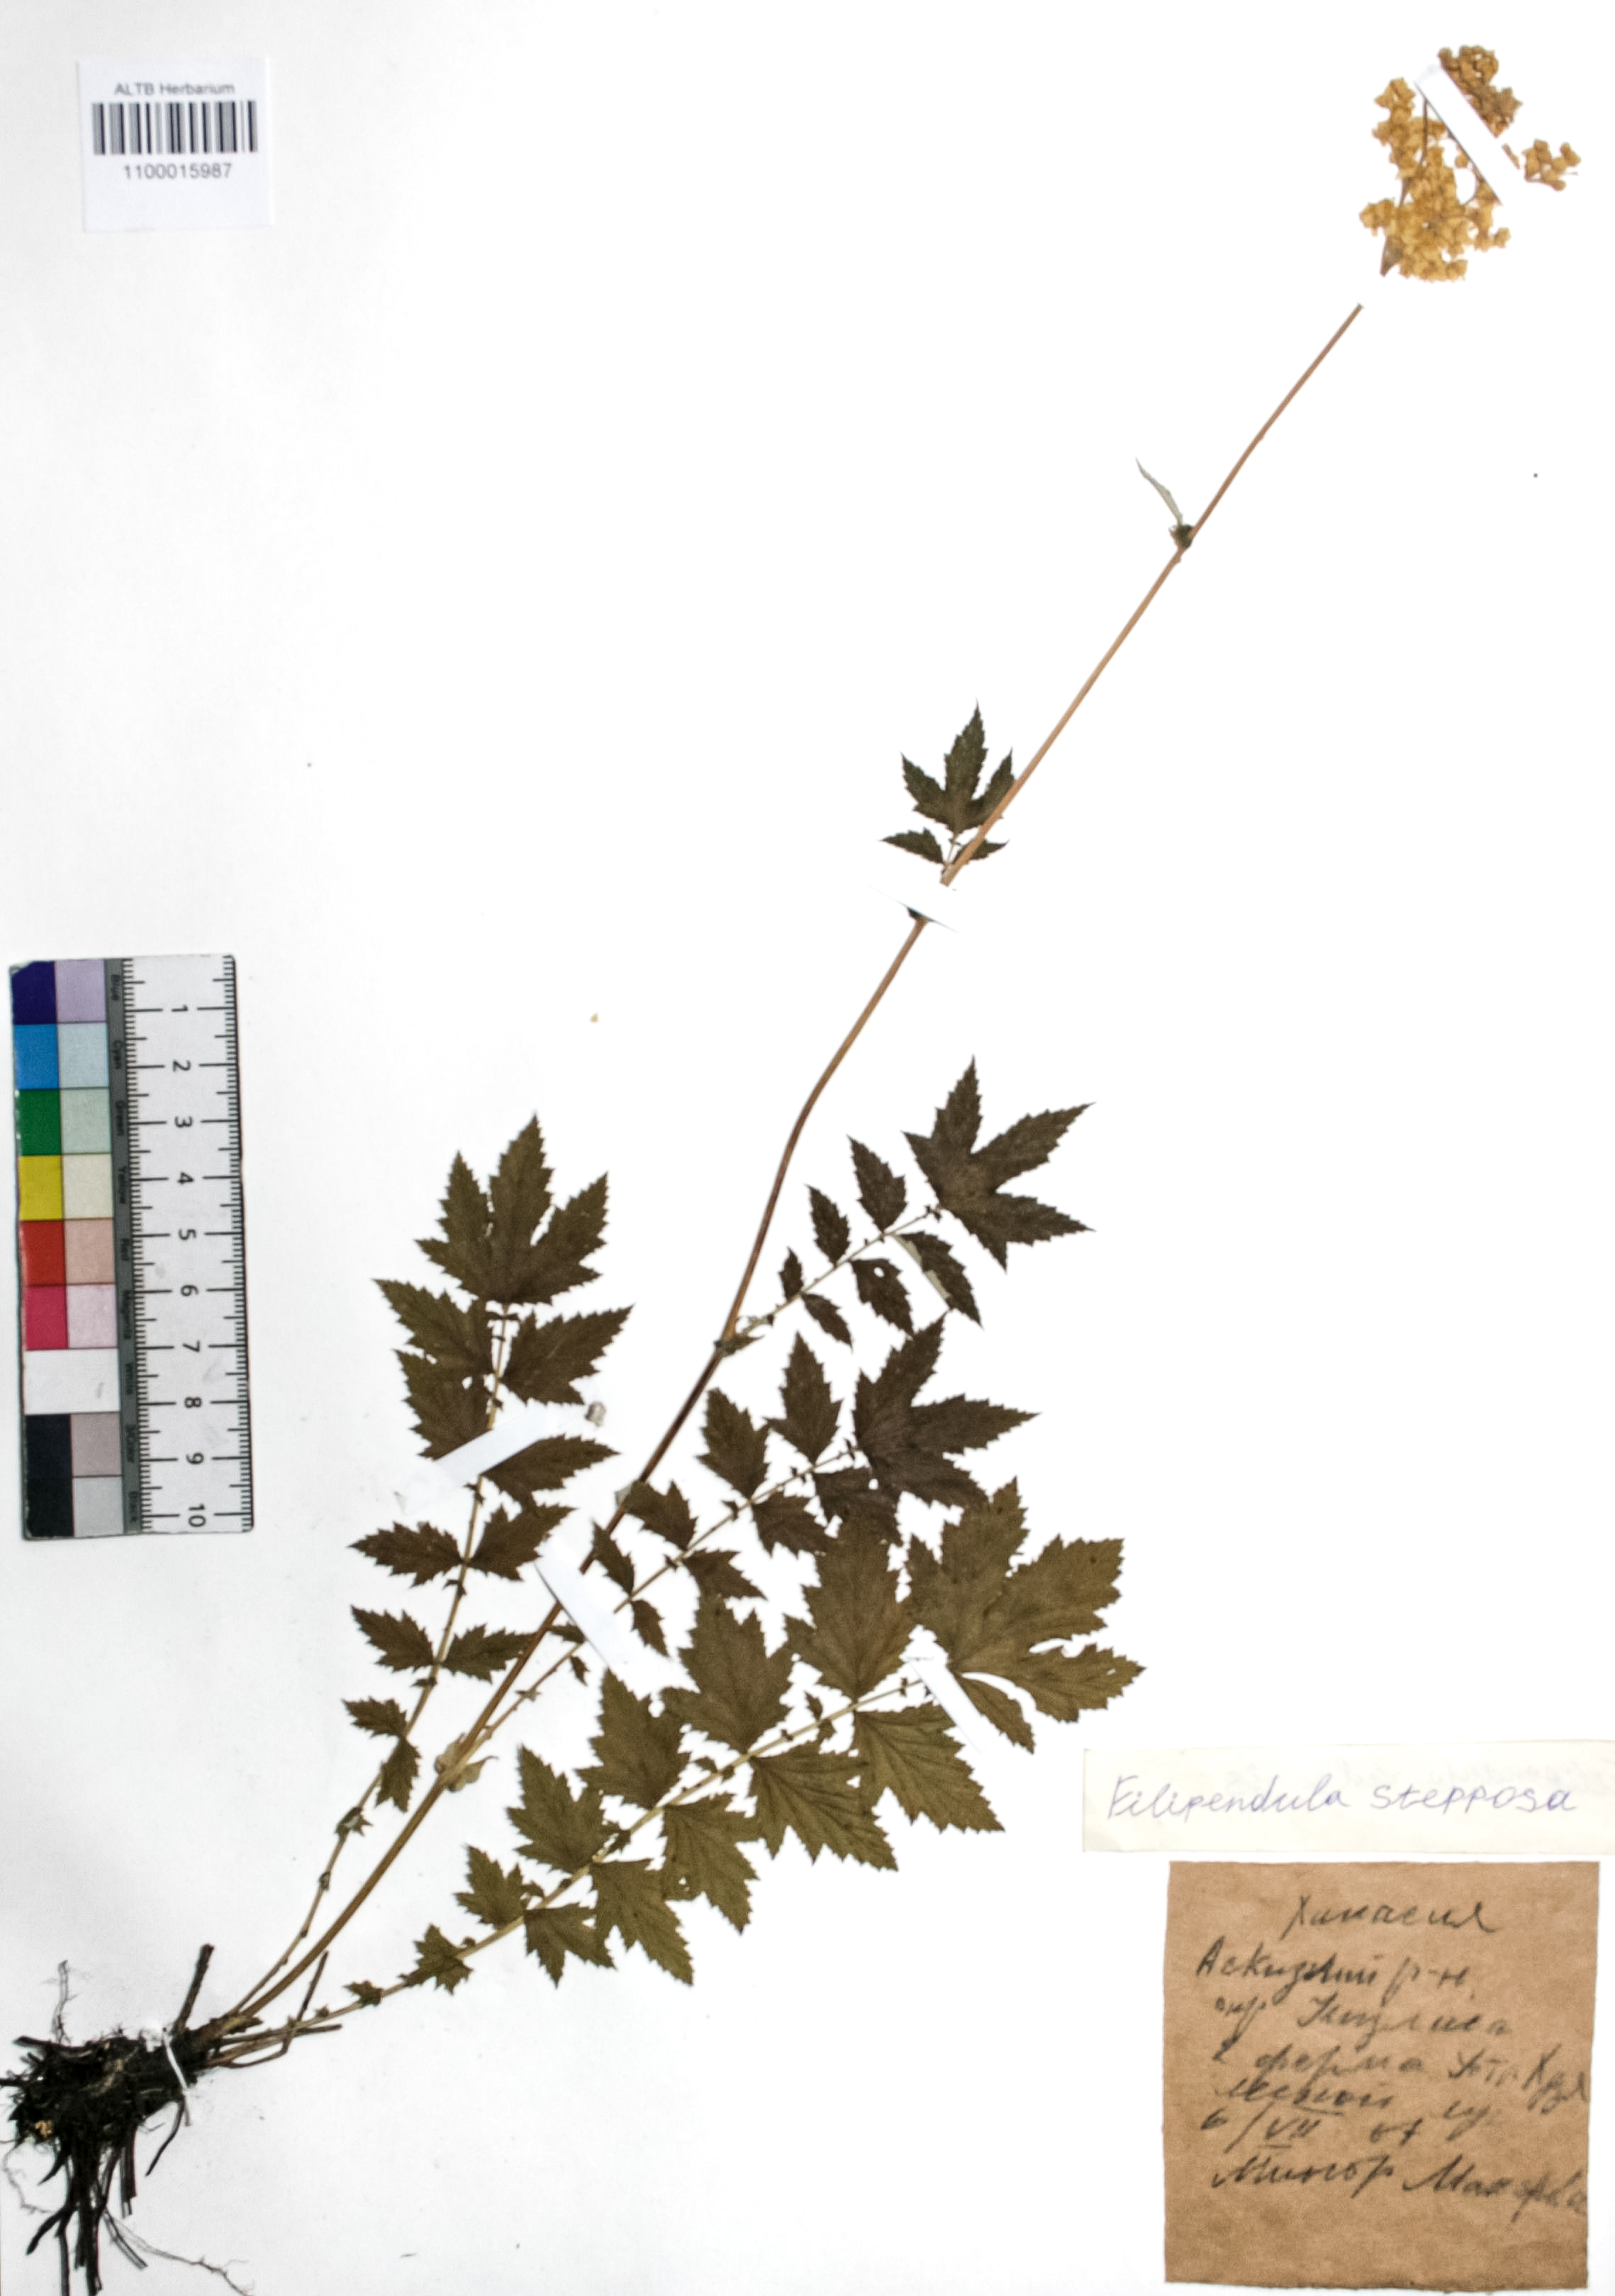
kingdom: Plantae
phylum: Tracheophyta
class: Magnoliopsida
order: Rosales
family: Rosaceae
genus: Filipendula
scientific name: Filipendula ulmaria
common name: Meadowsweet
